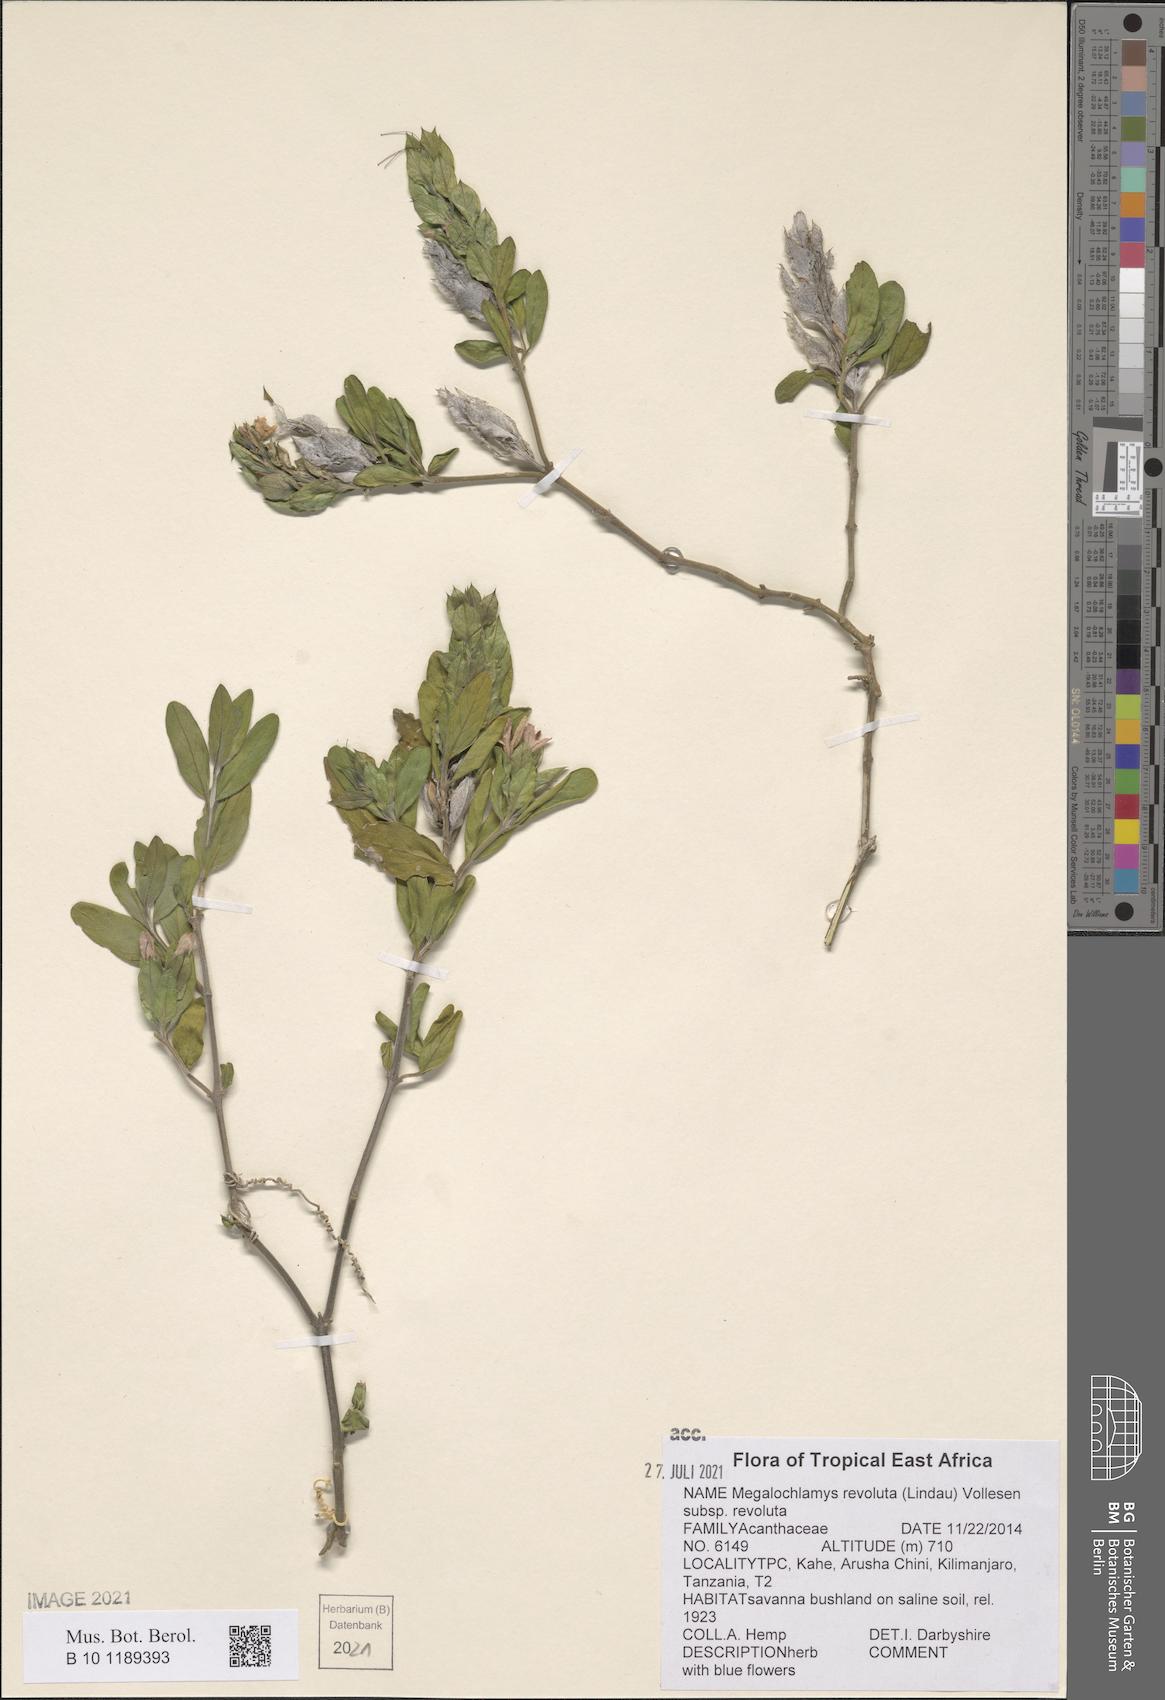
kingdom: Plantae
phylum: Tracheophyta
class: Magnoliopsida
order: Lamiales
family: Acanthaceae
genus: Megalochlamys
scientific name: Megalochlamys revoluta
